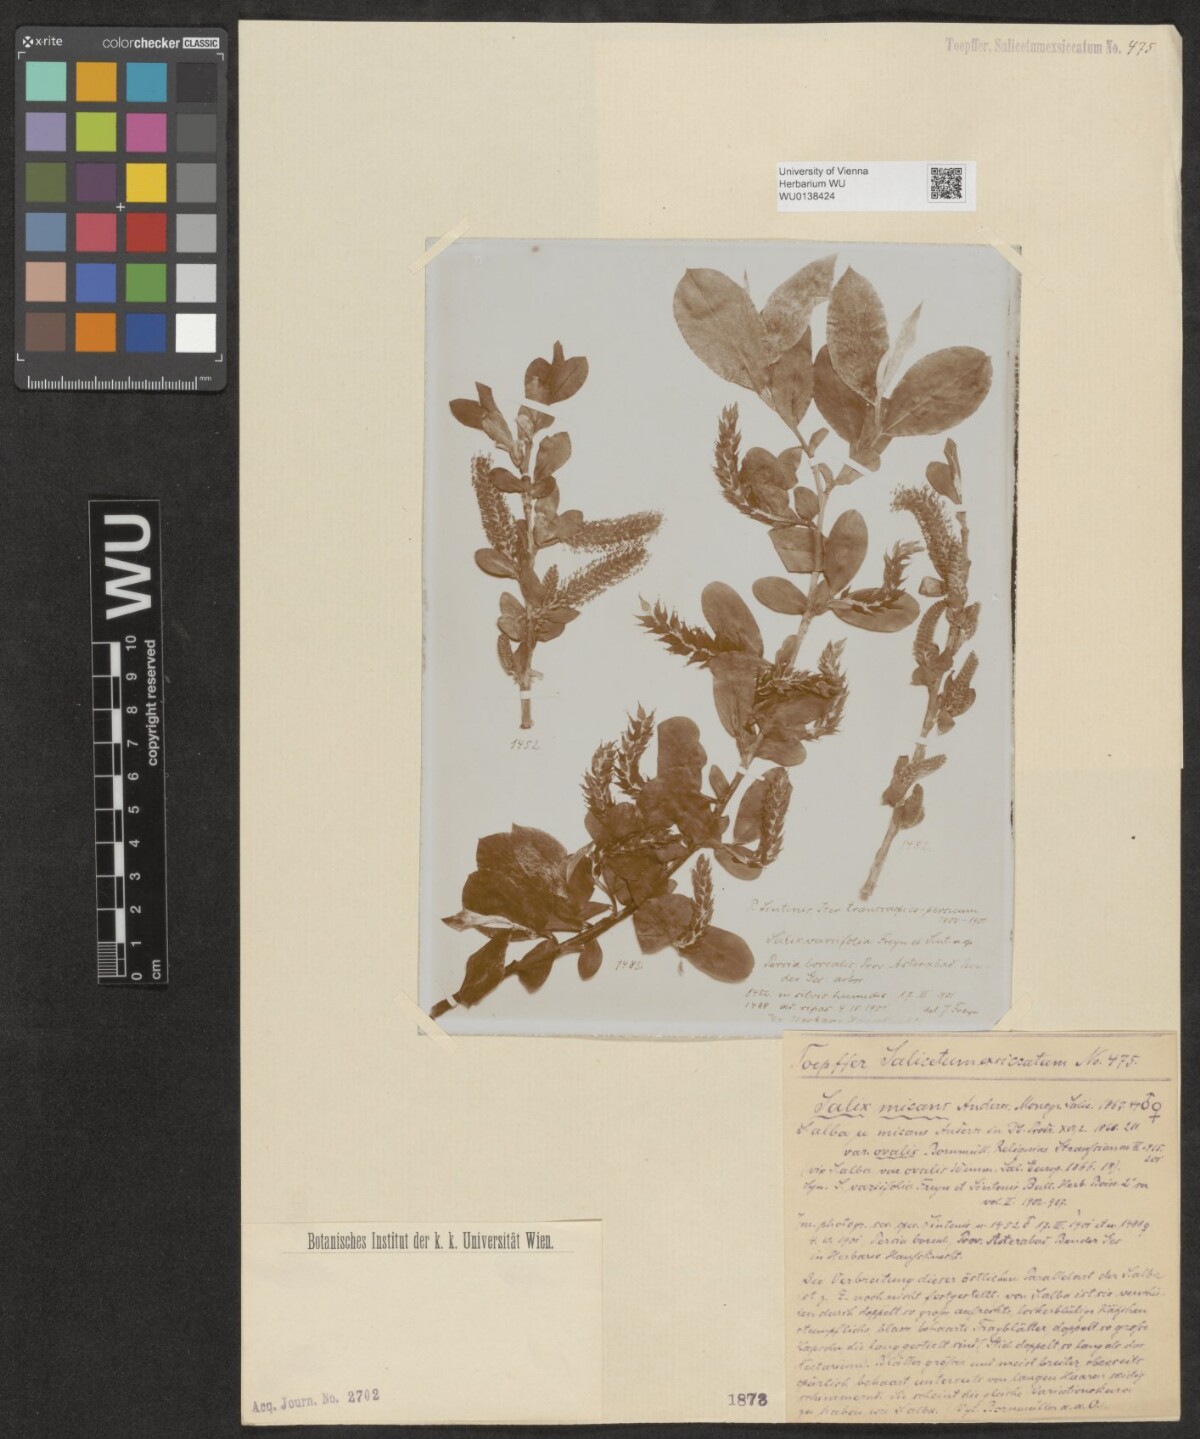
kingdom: Plantae
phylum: Tracheophyta
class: Magnoliopsida
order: Malpighiales
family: Salicaceae
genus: Salix
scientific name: Salix alba
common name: White willow
